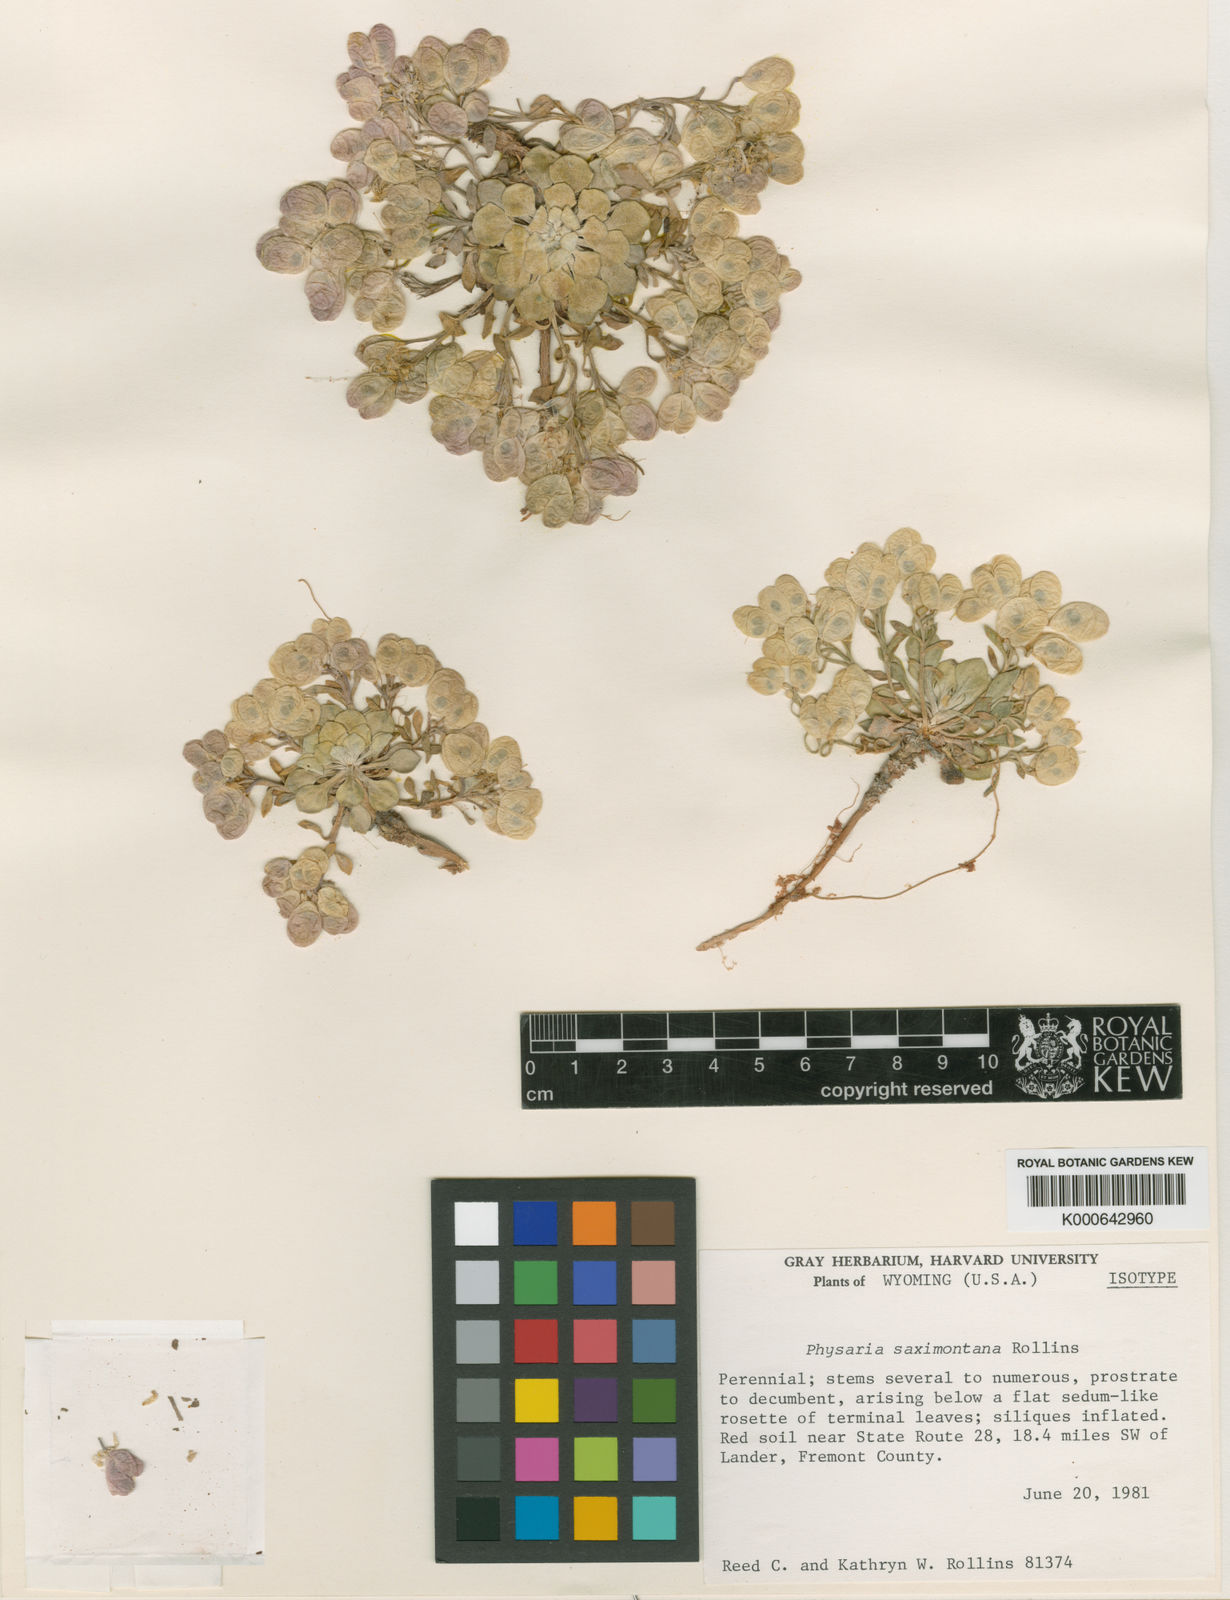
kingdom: Plantae
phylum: Tracheophyta
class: Magnoliopsida
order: Brassicales
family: Brassicaceae
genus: Physaria
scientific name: Physaria saximontana
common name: Fremont county twinpod
